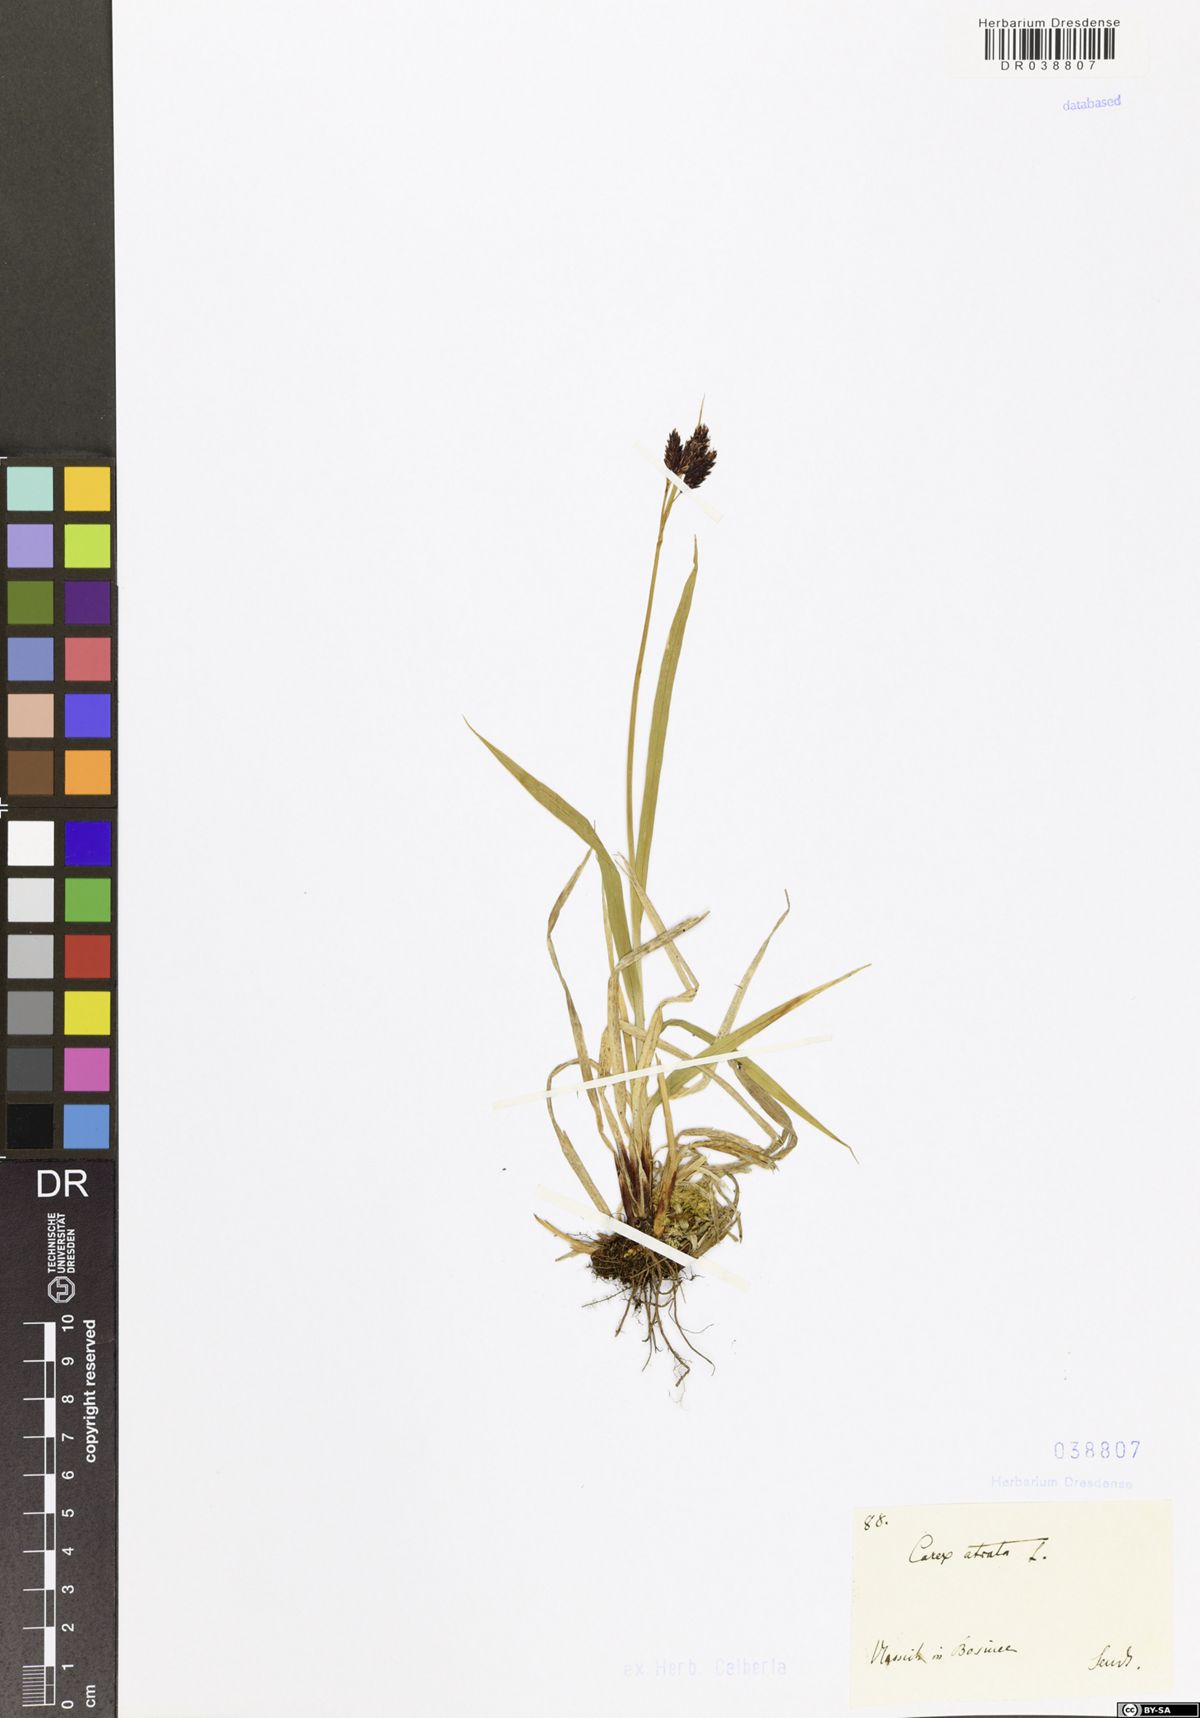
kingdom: Plantae
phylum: Tracheophyta
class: Liliopsida
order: Poales
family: Cyperaceae
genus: Carex
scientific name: Carex atrata
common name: Black alpine sedge
